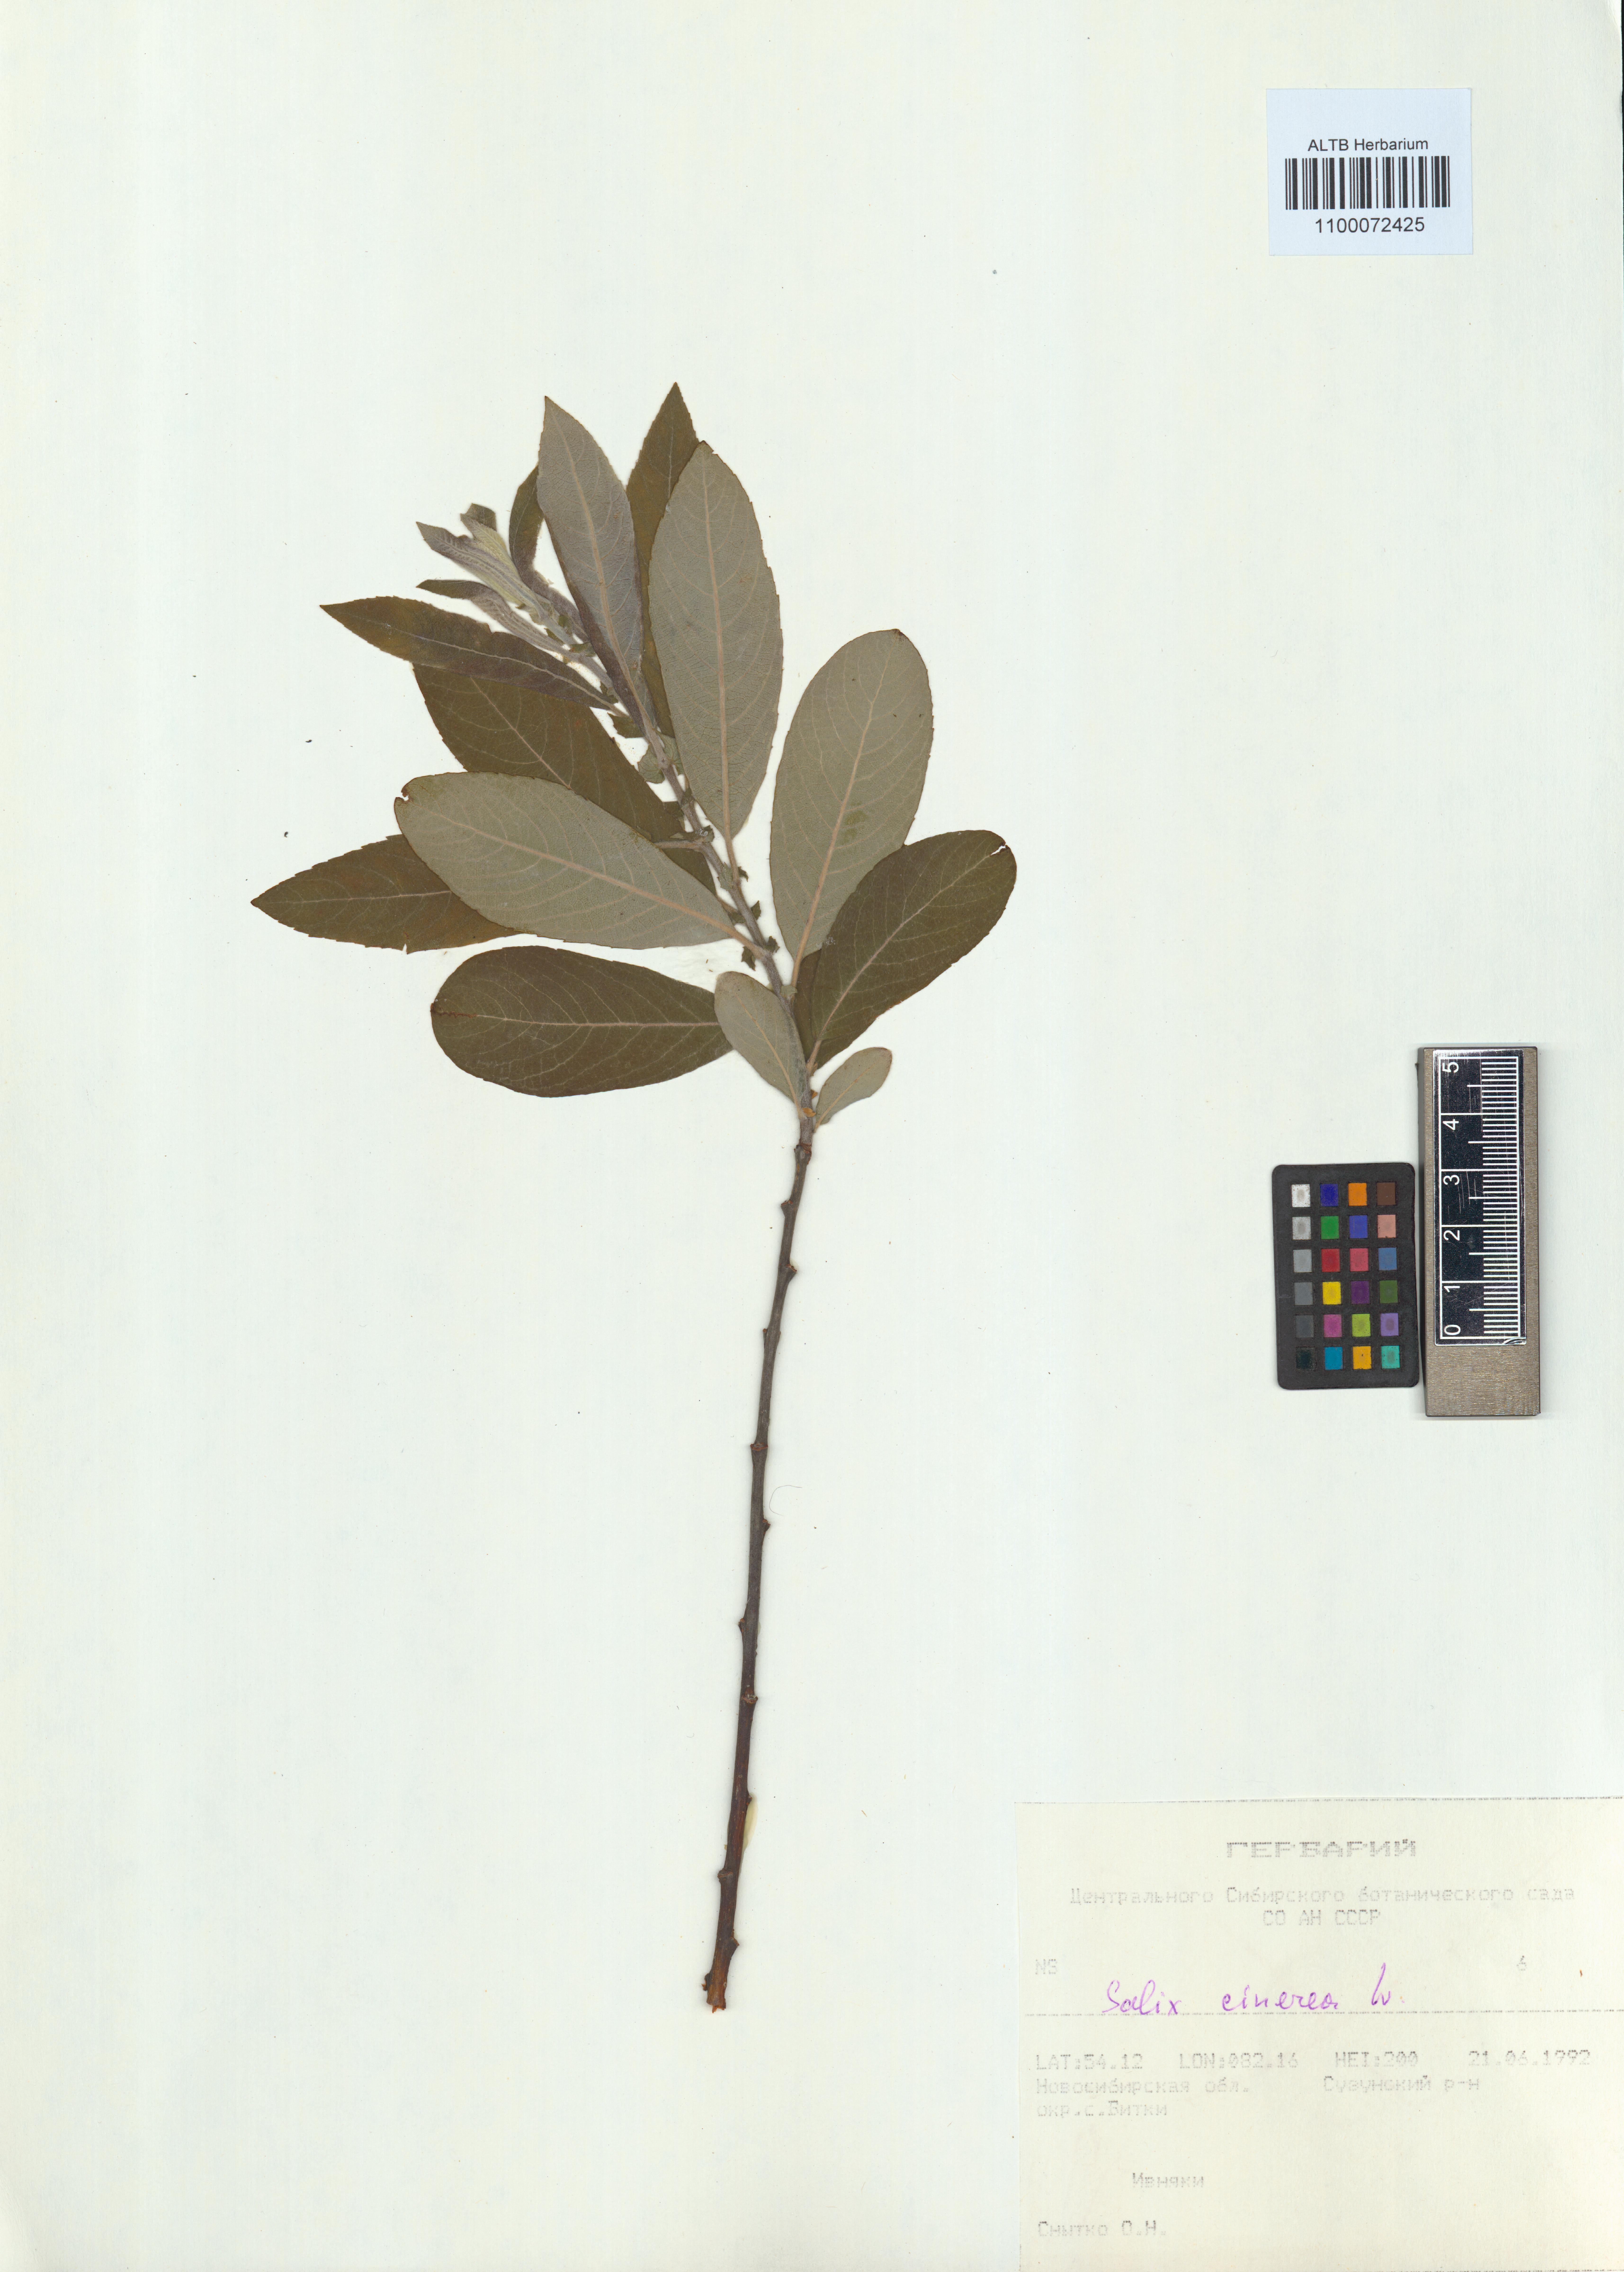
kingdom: Plantae
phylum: Tracheophyta
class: Magnoliopsida
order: Malpighiales
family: Salicaceae
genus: Salix
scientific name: Salix cinerea
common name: Common sallow
